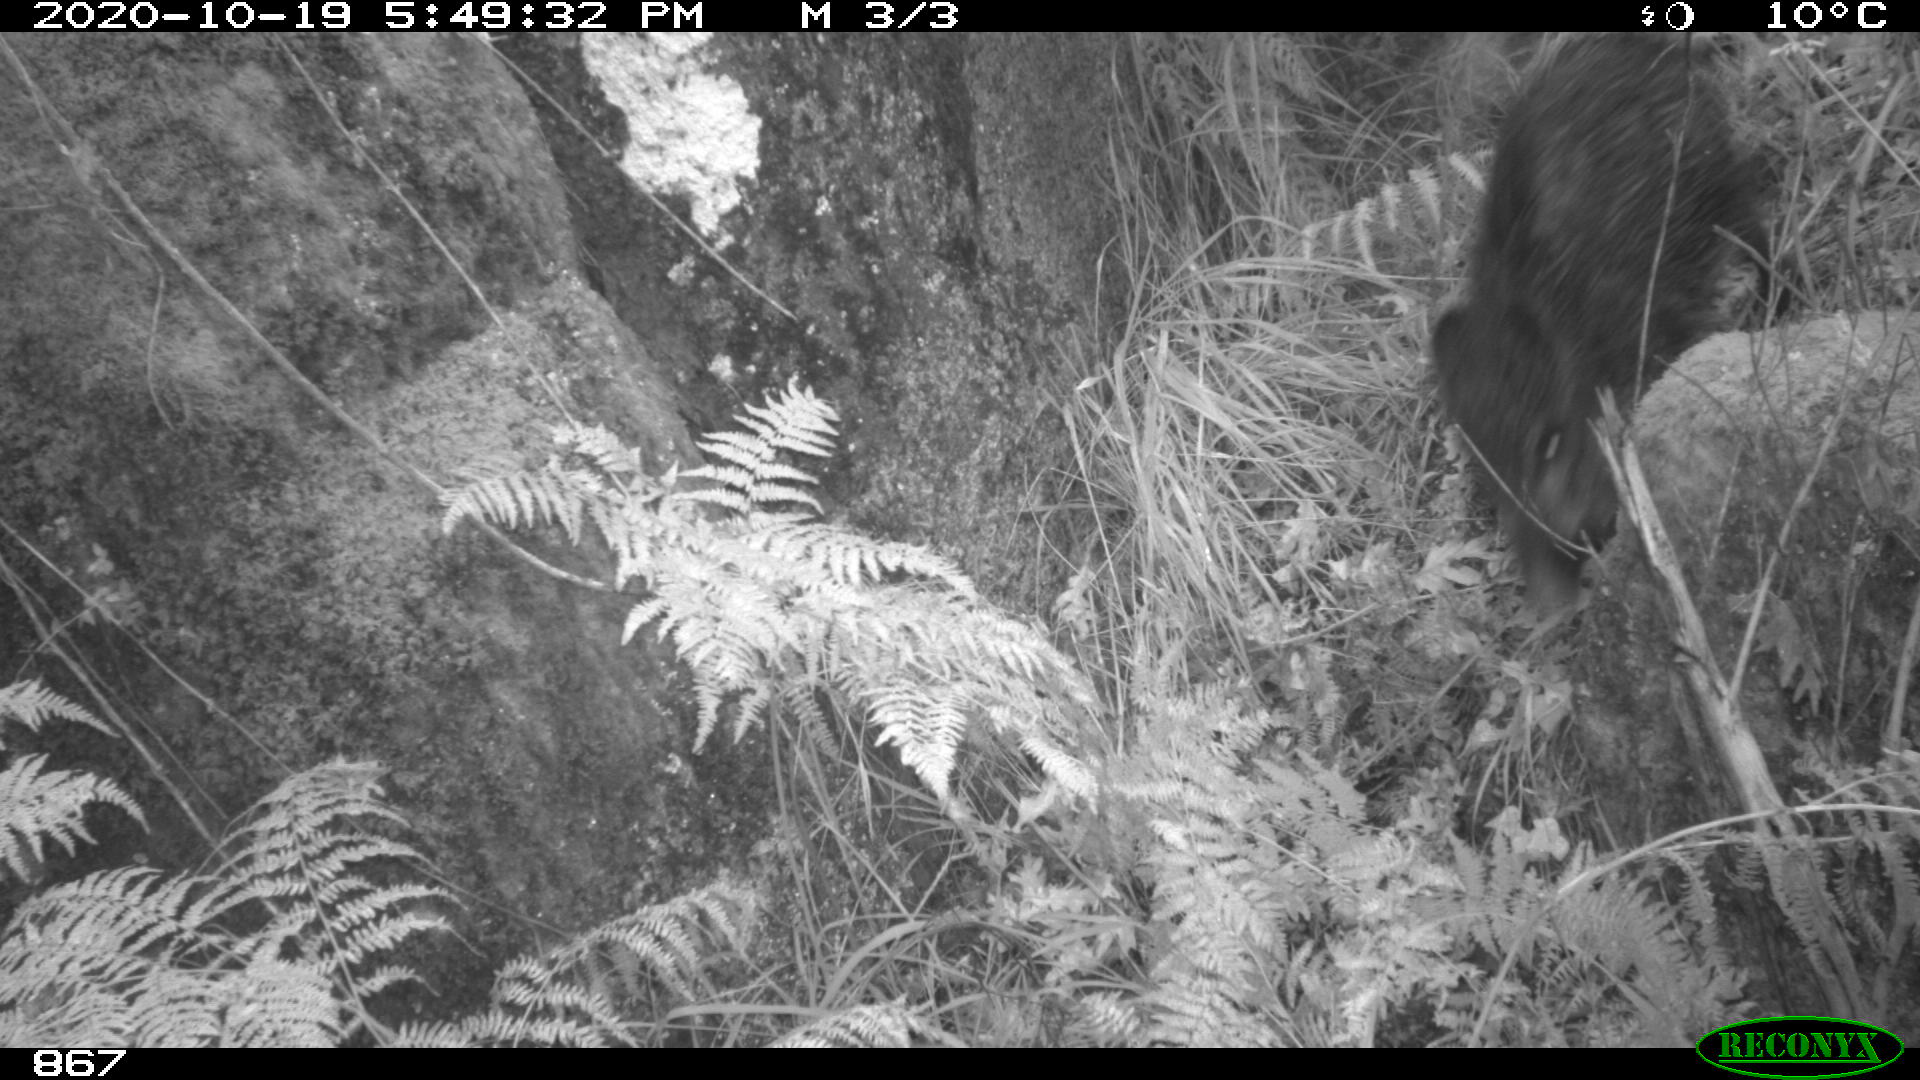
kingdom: Animalia
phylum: Chordata
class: Mammalia
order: Artiodactyla
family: Suidae
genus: Sus
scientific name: Sus scrofa
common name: Wild boar
